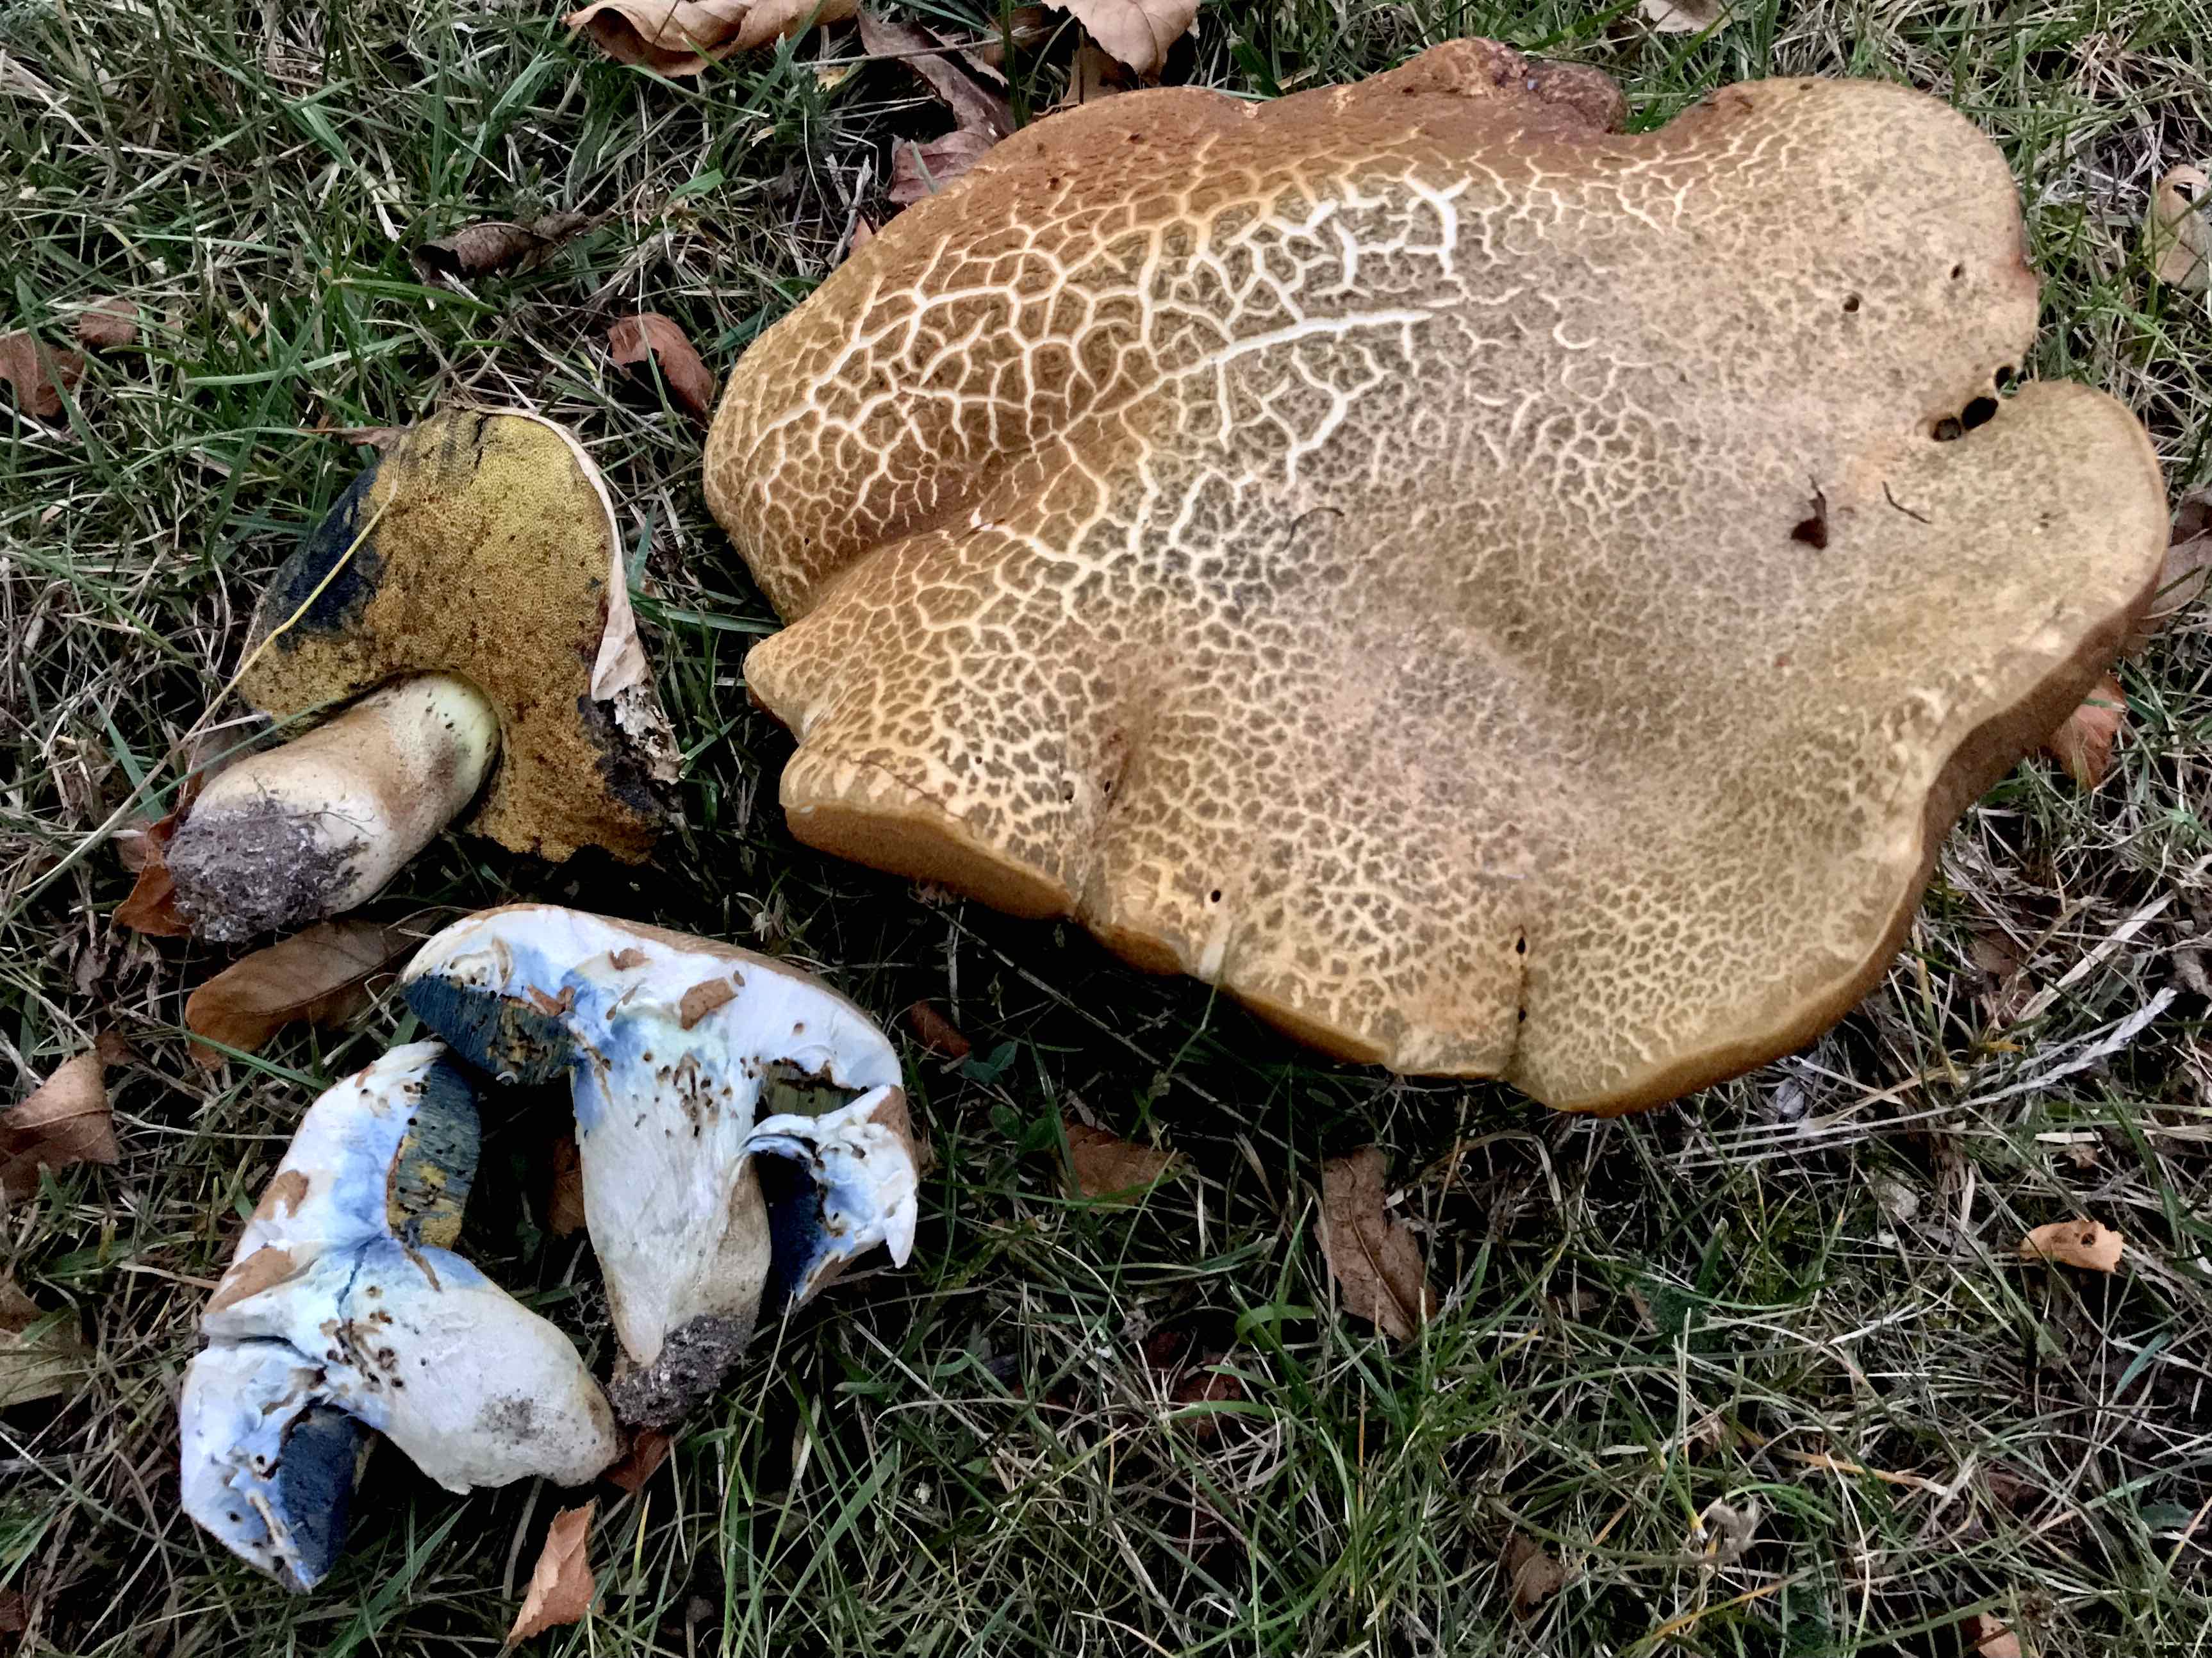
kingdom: Fungi
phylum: Basidiomycota
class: Agaricomycetes
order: Boletales
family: Boletaceae
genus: Caloboletus
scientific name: Caloboletus radicans
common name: rod-rørhat
